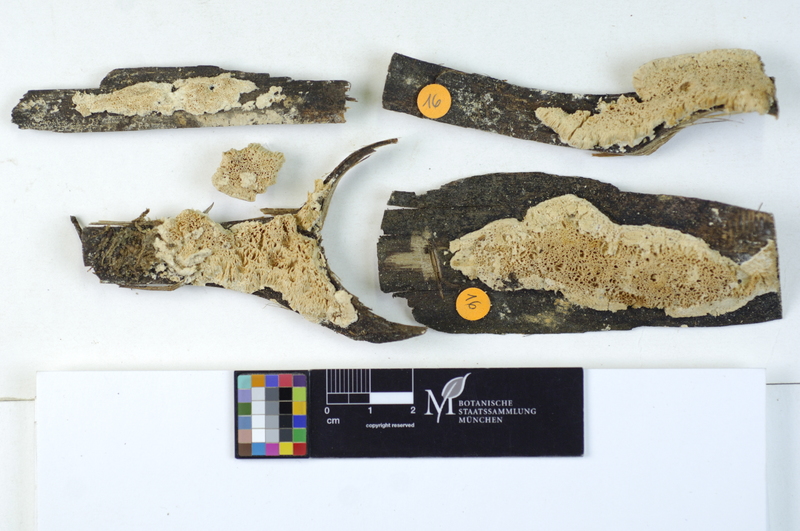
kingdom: Plantae
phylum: Tracheophyta
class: Pinopsida
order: Pinales
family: Pinaceae
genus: Picea
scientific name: Picea
